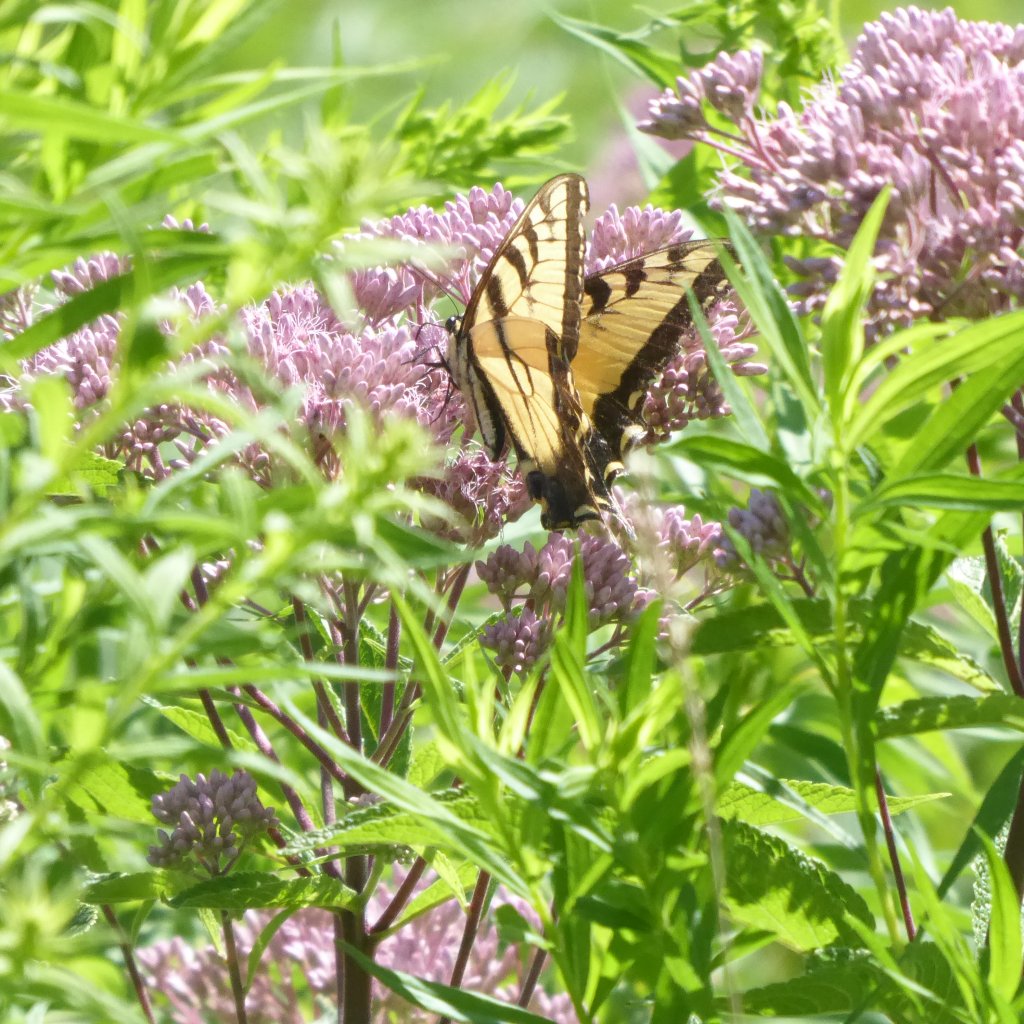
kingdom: Animalia
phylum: Arthropoda
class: Insecta
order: Lepidoptera
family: Papilionidae
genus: Pterourus
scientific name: Pterourus
